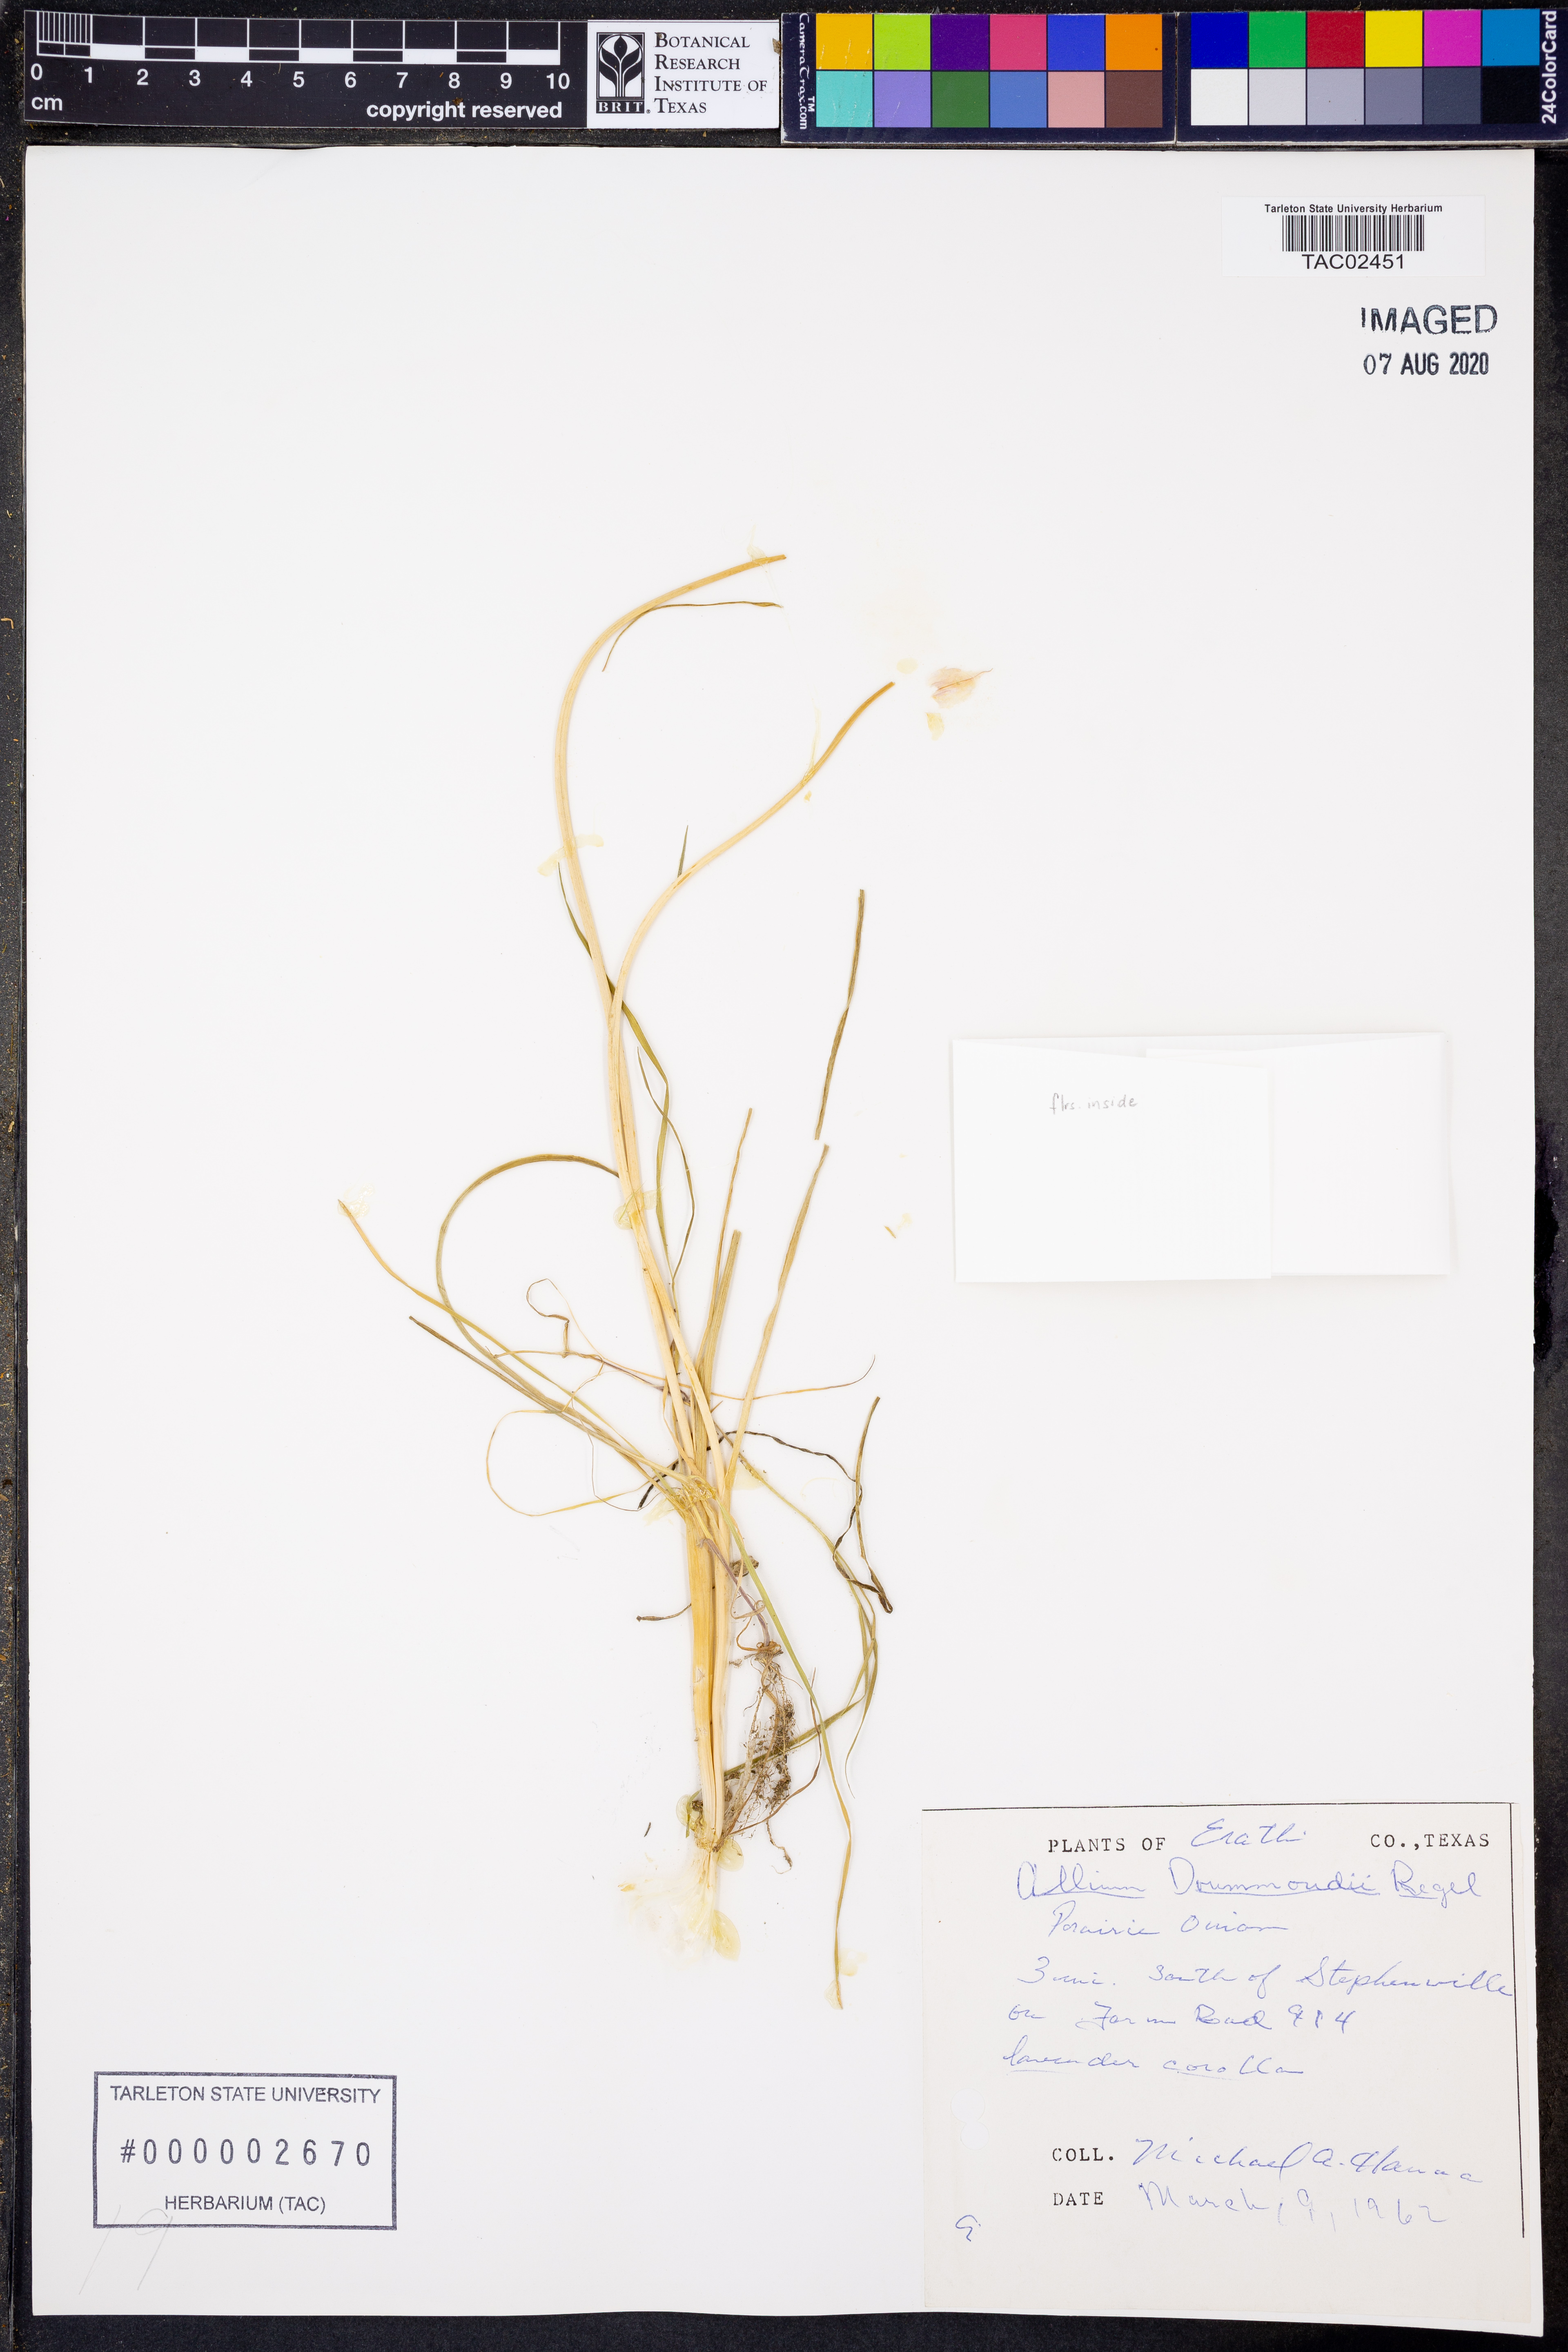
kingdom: Plantae
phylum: Tracheophyta
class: Liliopsida
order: Asparagales
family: Amaryllidaceae
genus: Allium
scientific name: Allium drummondii
